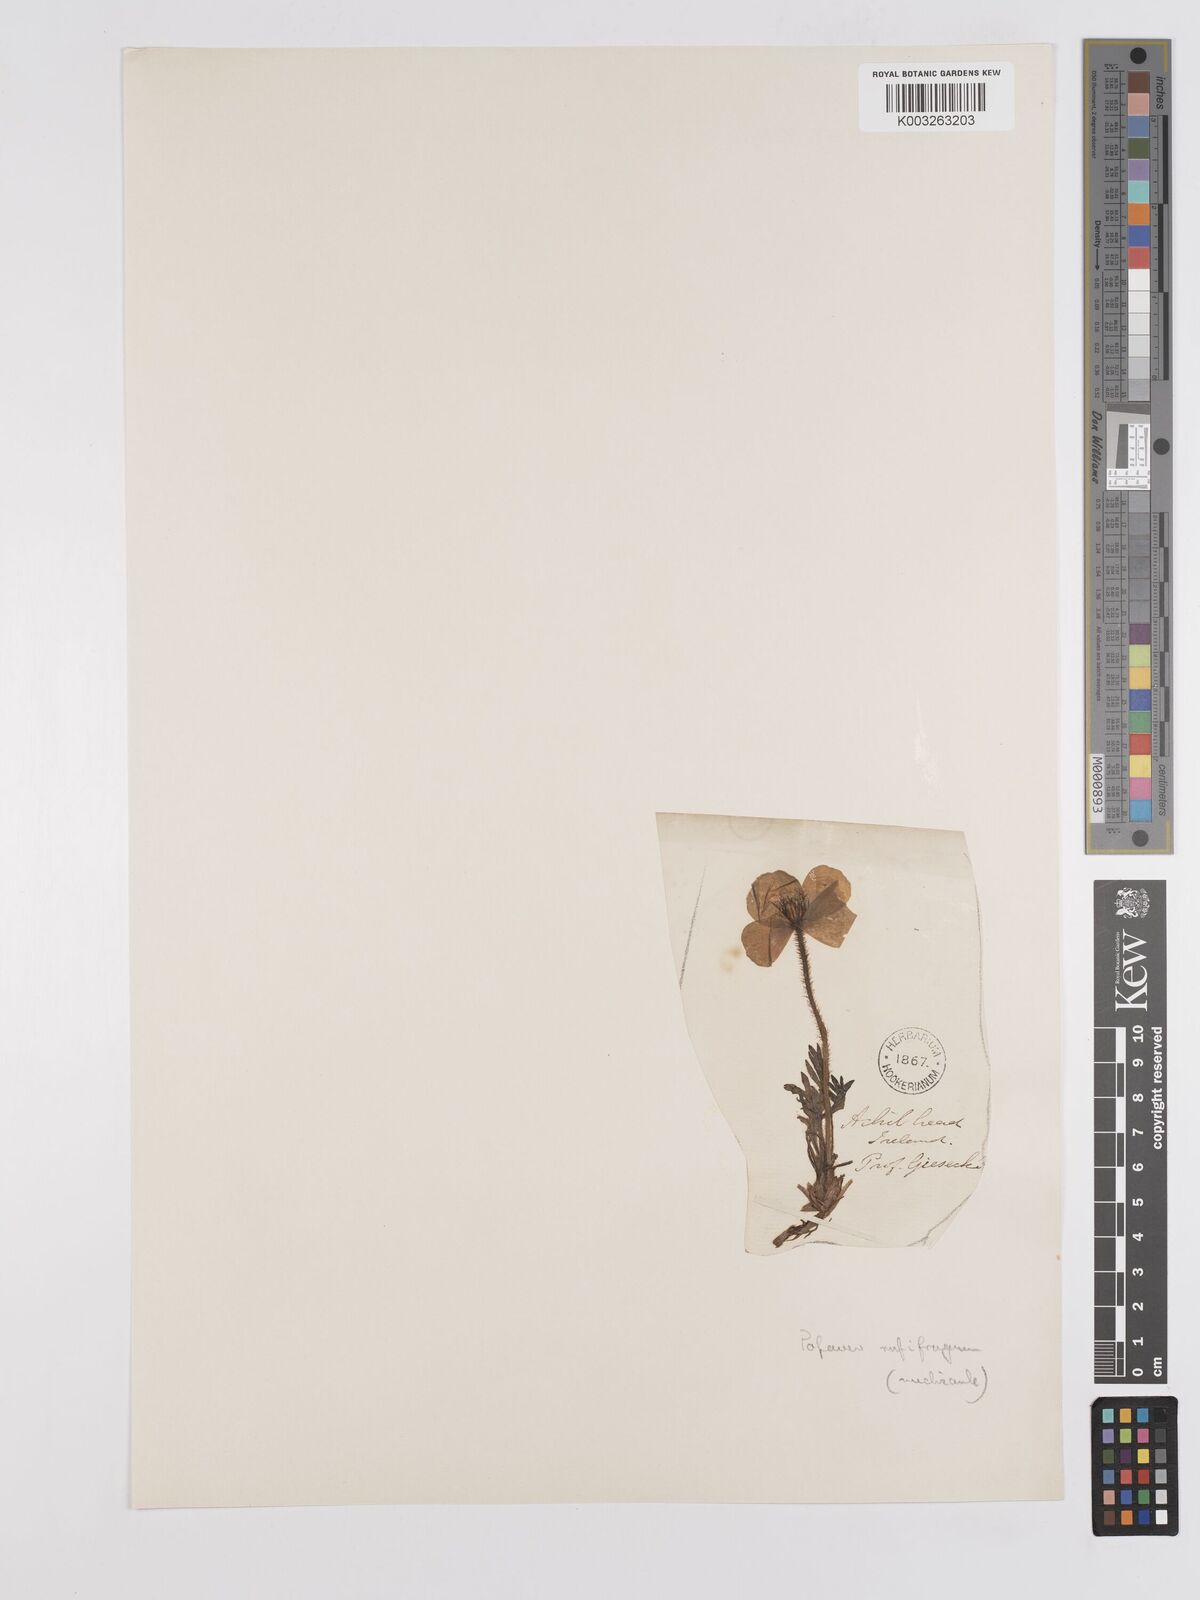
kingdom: Plantae
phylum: Tracheophyta
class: Magnoliopsida
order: Ranunculales
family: Papaveraceae
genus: Papaver
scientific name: Papaver radicatum
